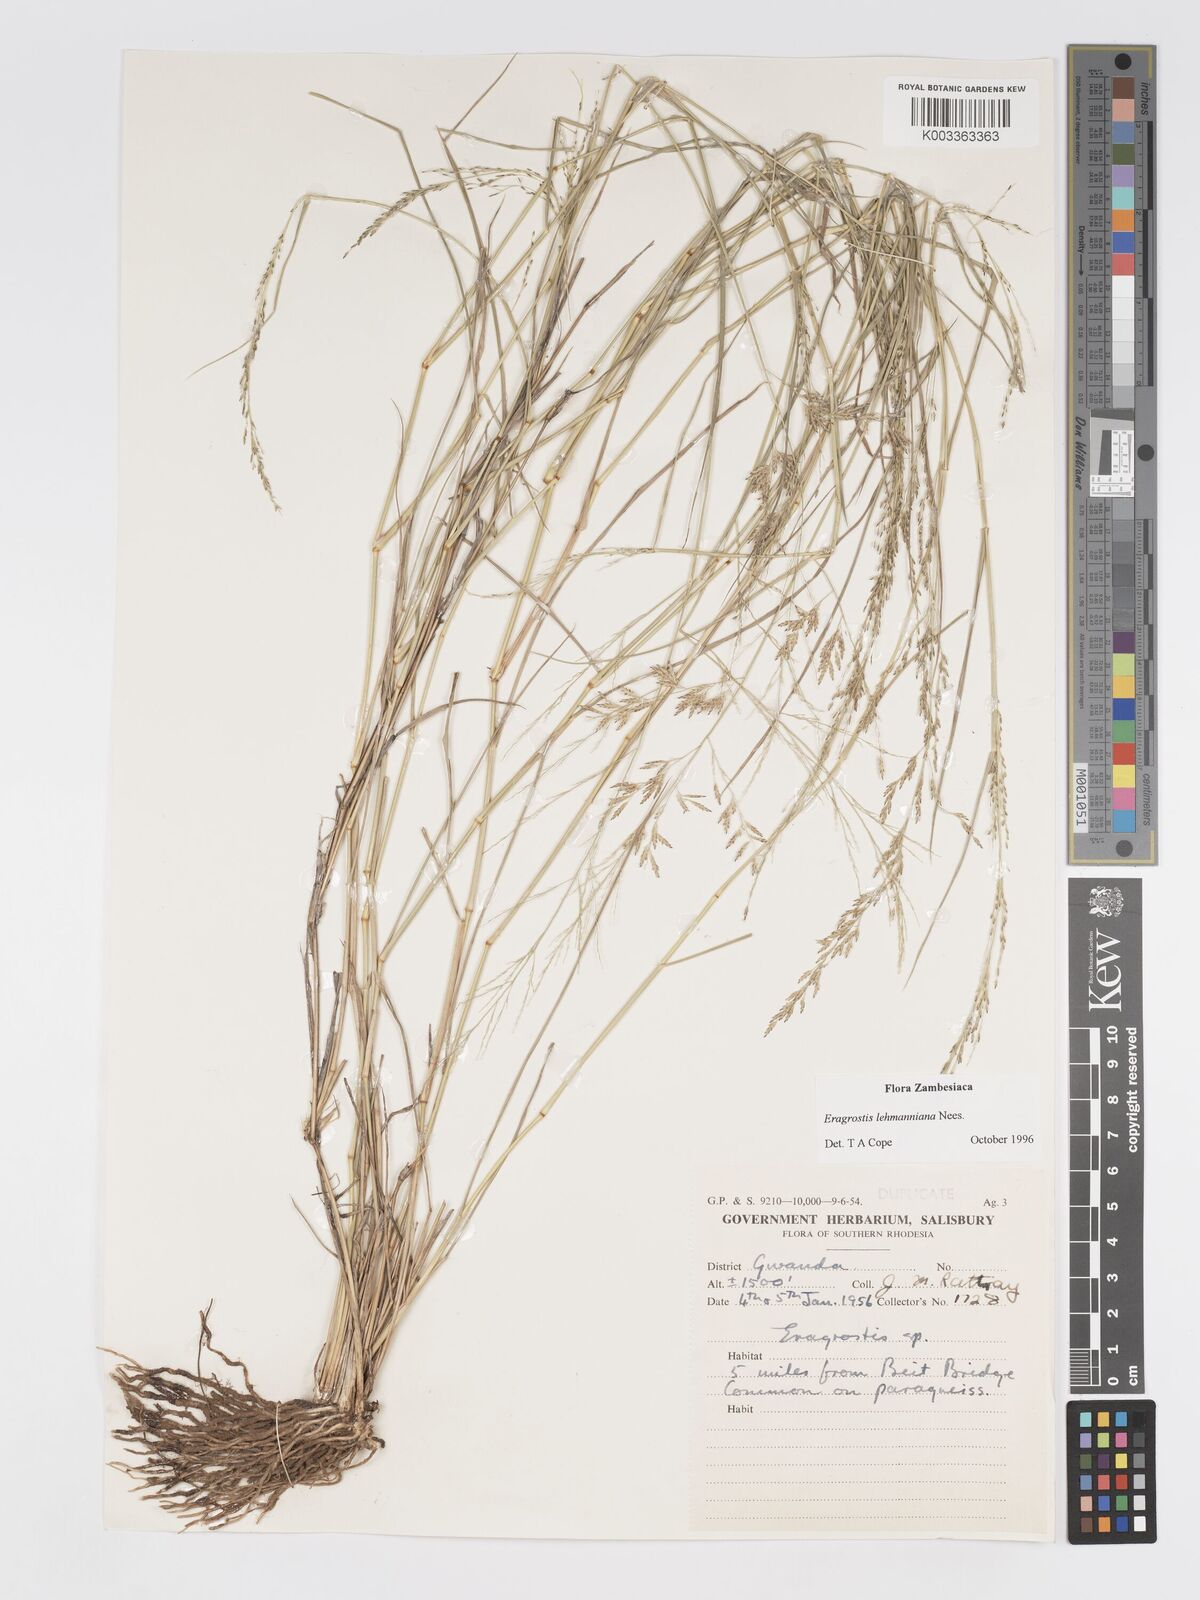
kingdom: Plantae
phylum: Tracheophyta
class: Liliopsida
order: Poales
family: Poaceae
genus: Eragrostis
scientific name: Eragrostis lehmanniana
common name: Lehmann lovegrass
